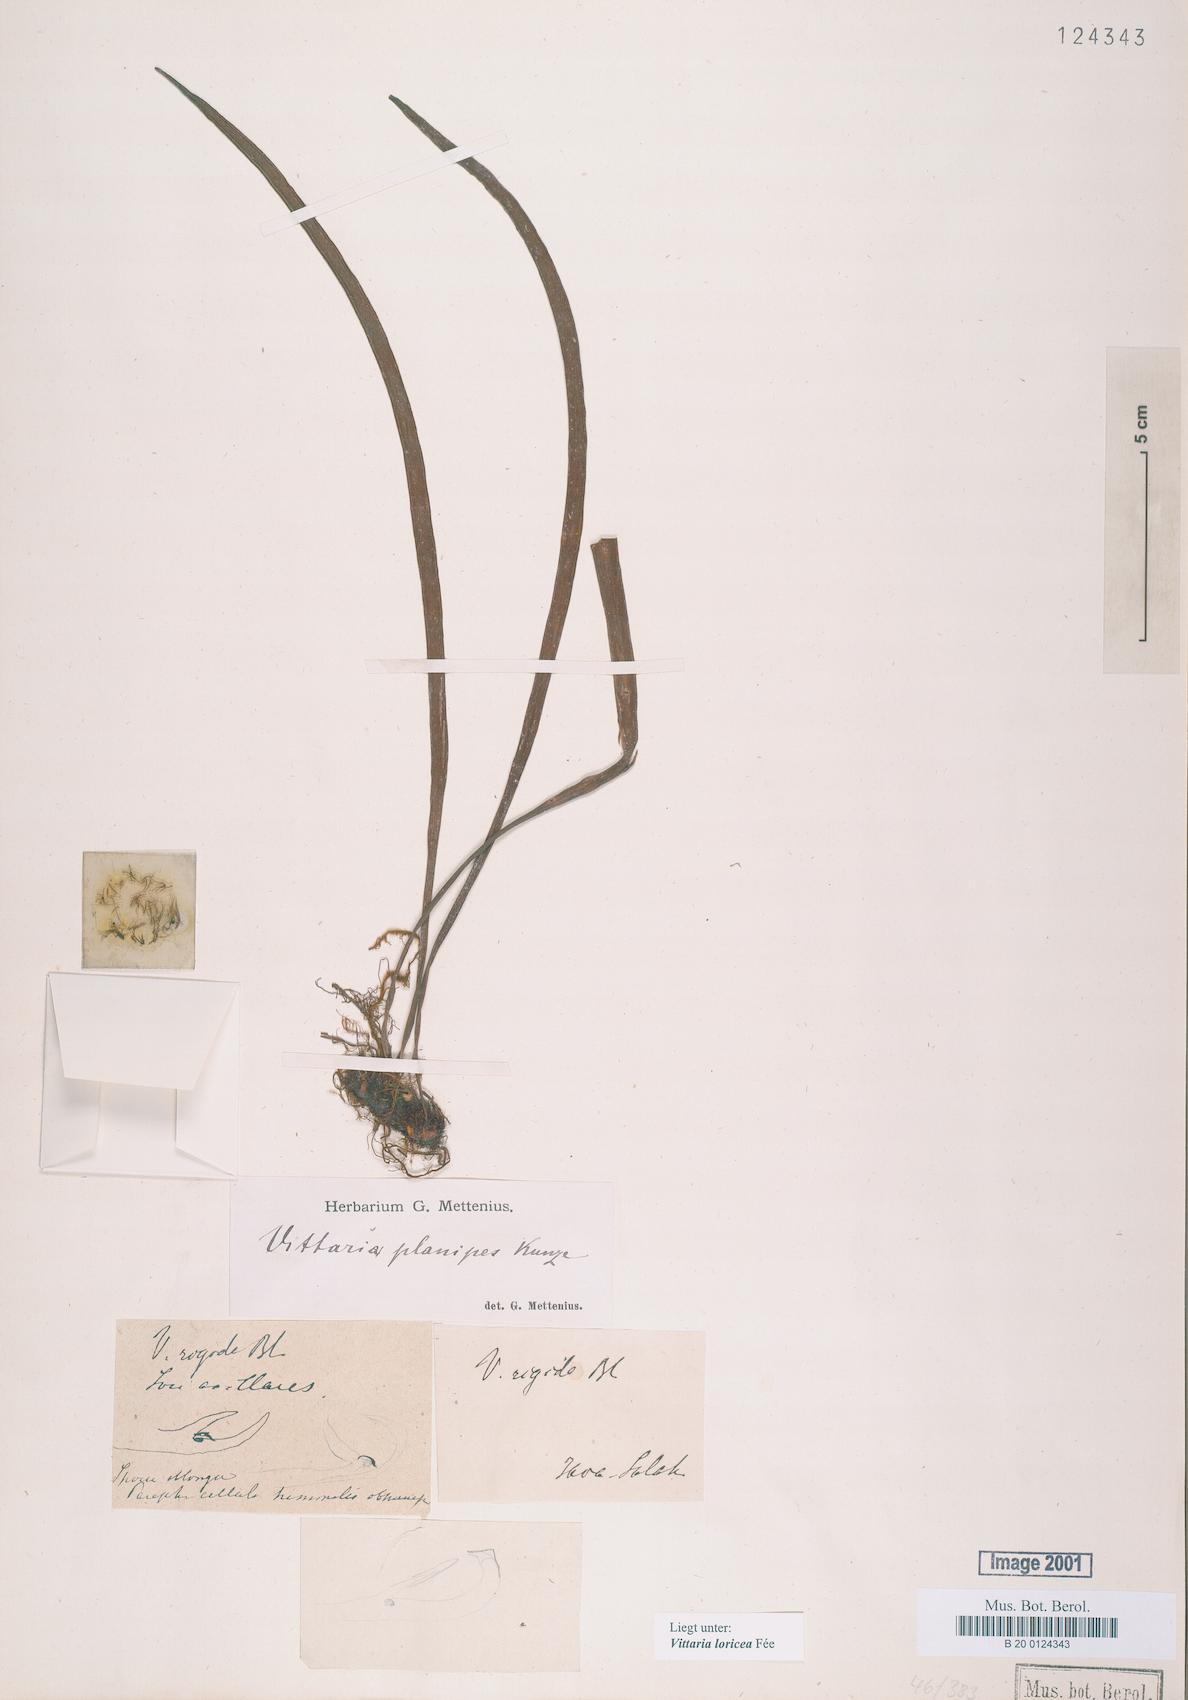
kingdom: Plantae
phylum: Tracheophyta
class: Polypodiopsida
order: Polypodiales
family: Pteridaceae
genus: Haplopteris
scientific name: Haplopteris zosterifolia
